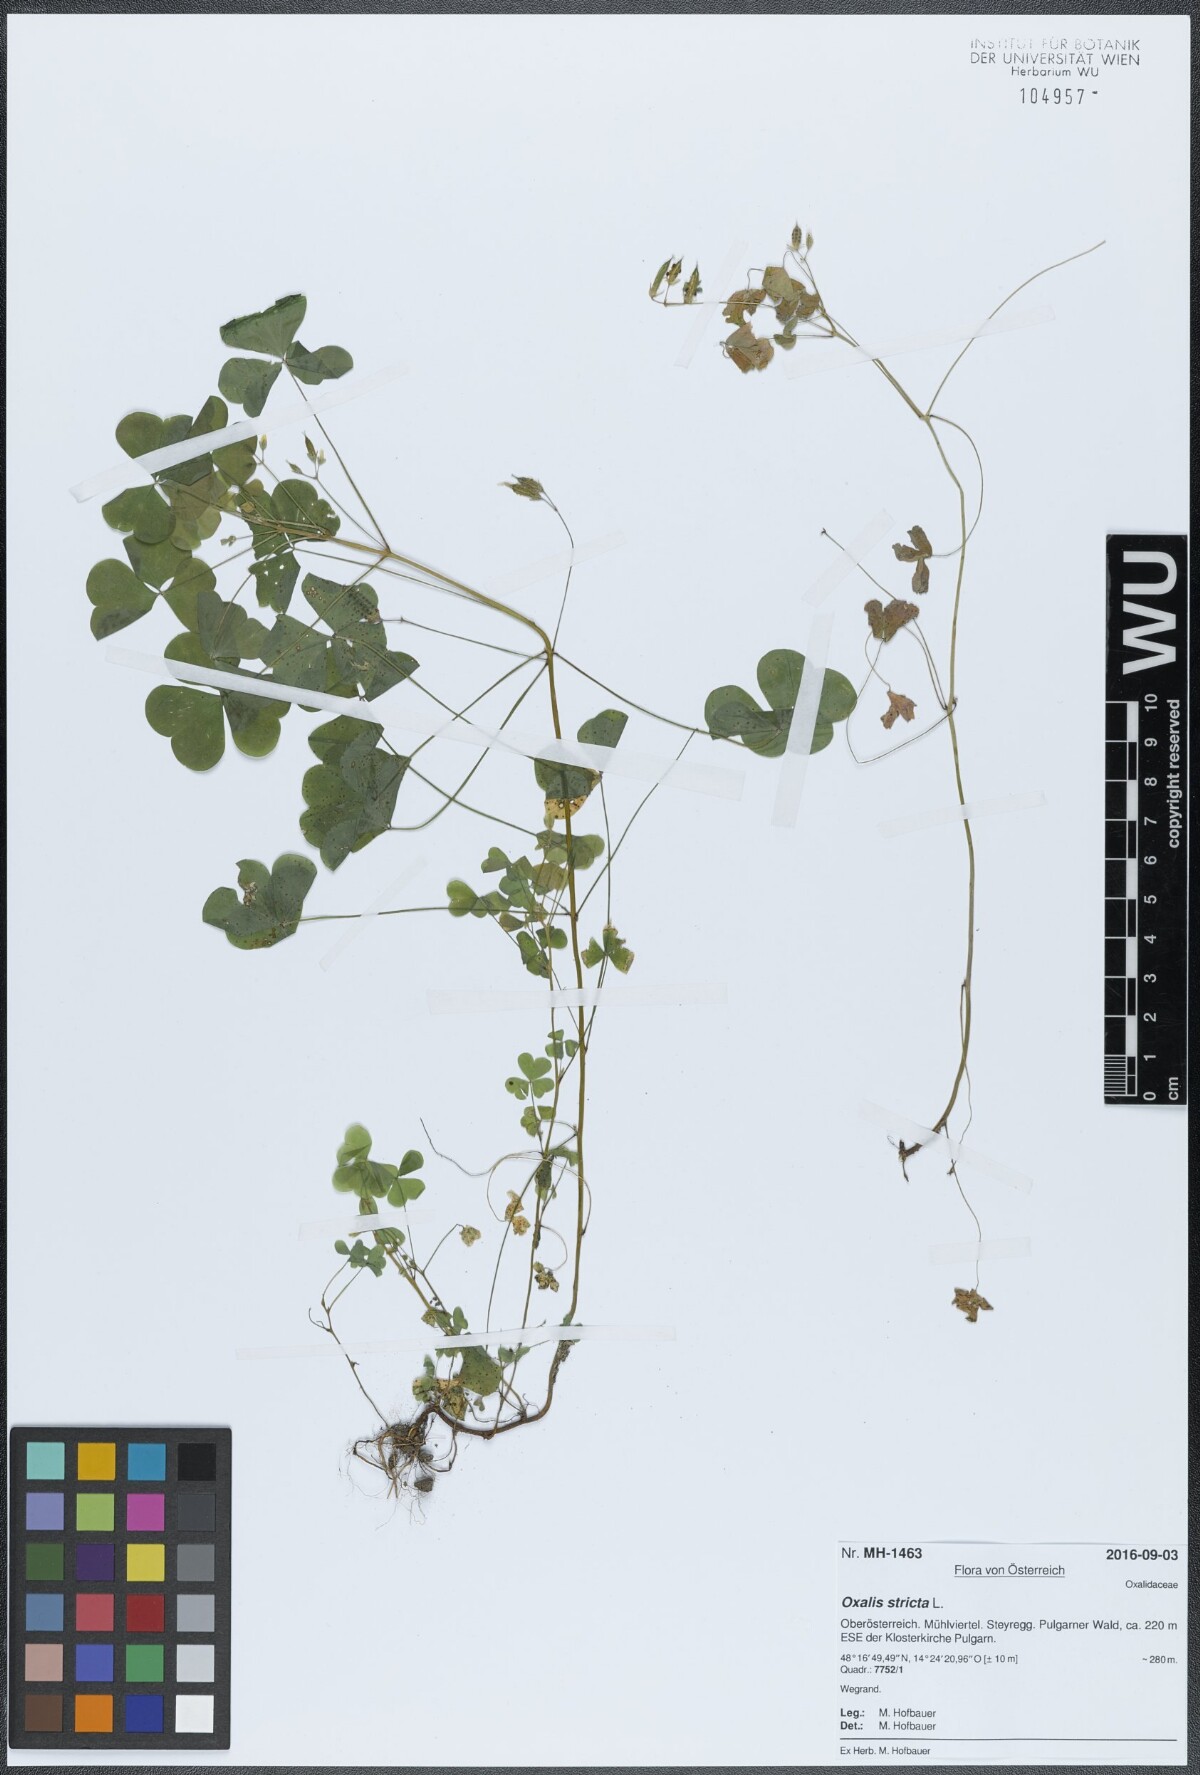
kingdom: Plantae
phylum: Tracheophyta
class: Magnoliopsida
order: Oxalidales
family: Oxalidaceae
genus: Oxalis
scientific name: Oxalis stricta
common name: Upright yellow-sorrel
